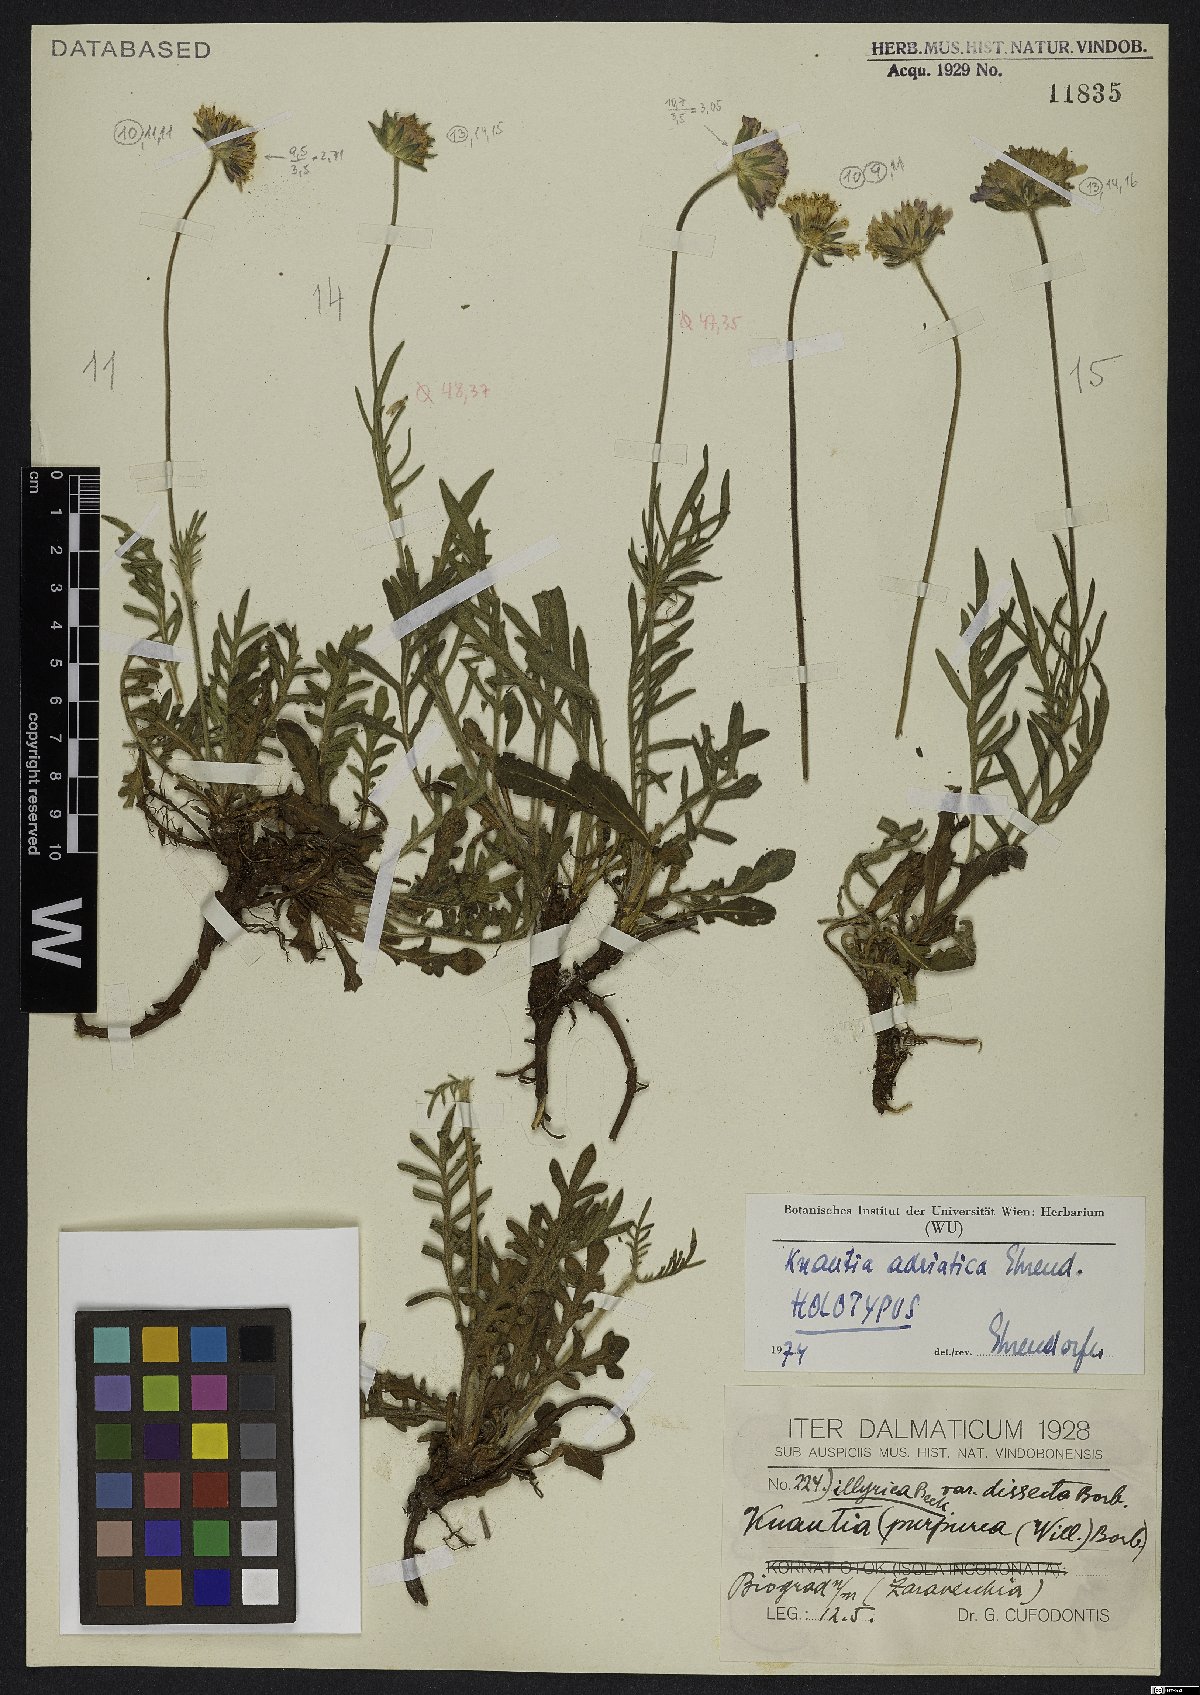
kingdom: Plantae
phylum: Tracheophyta
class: Magnoliopsida
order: Dipsacales
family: Caprifoliaceae
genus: Knautia
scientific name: Knautia adriatica
